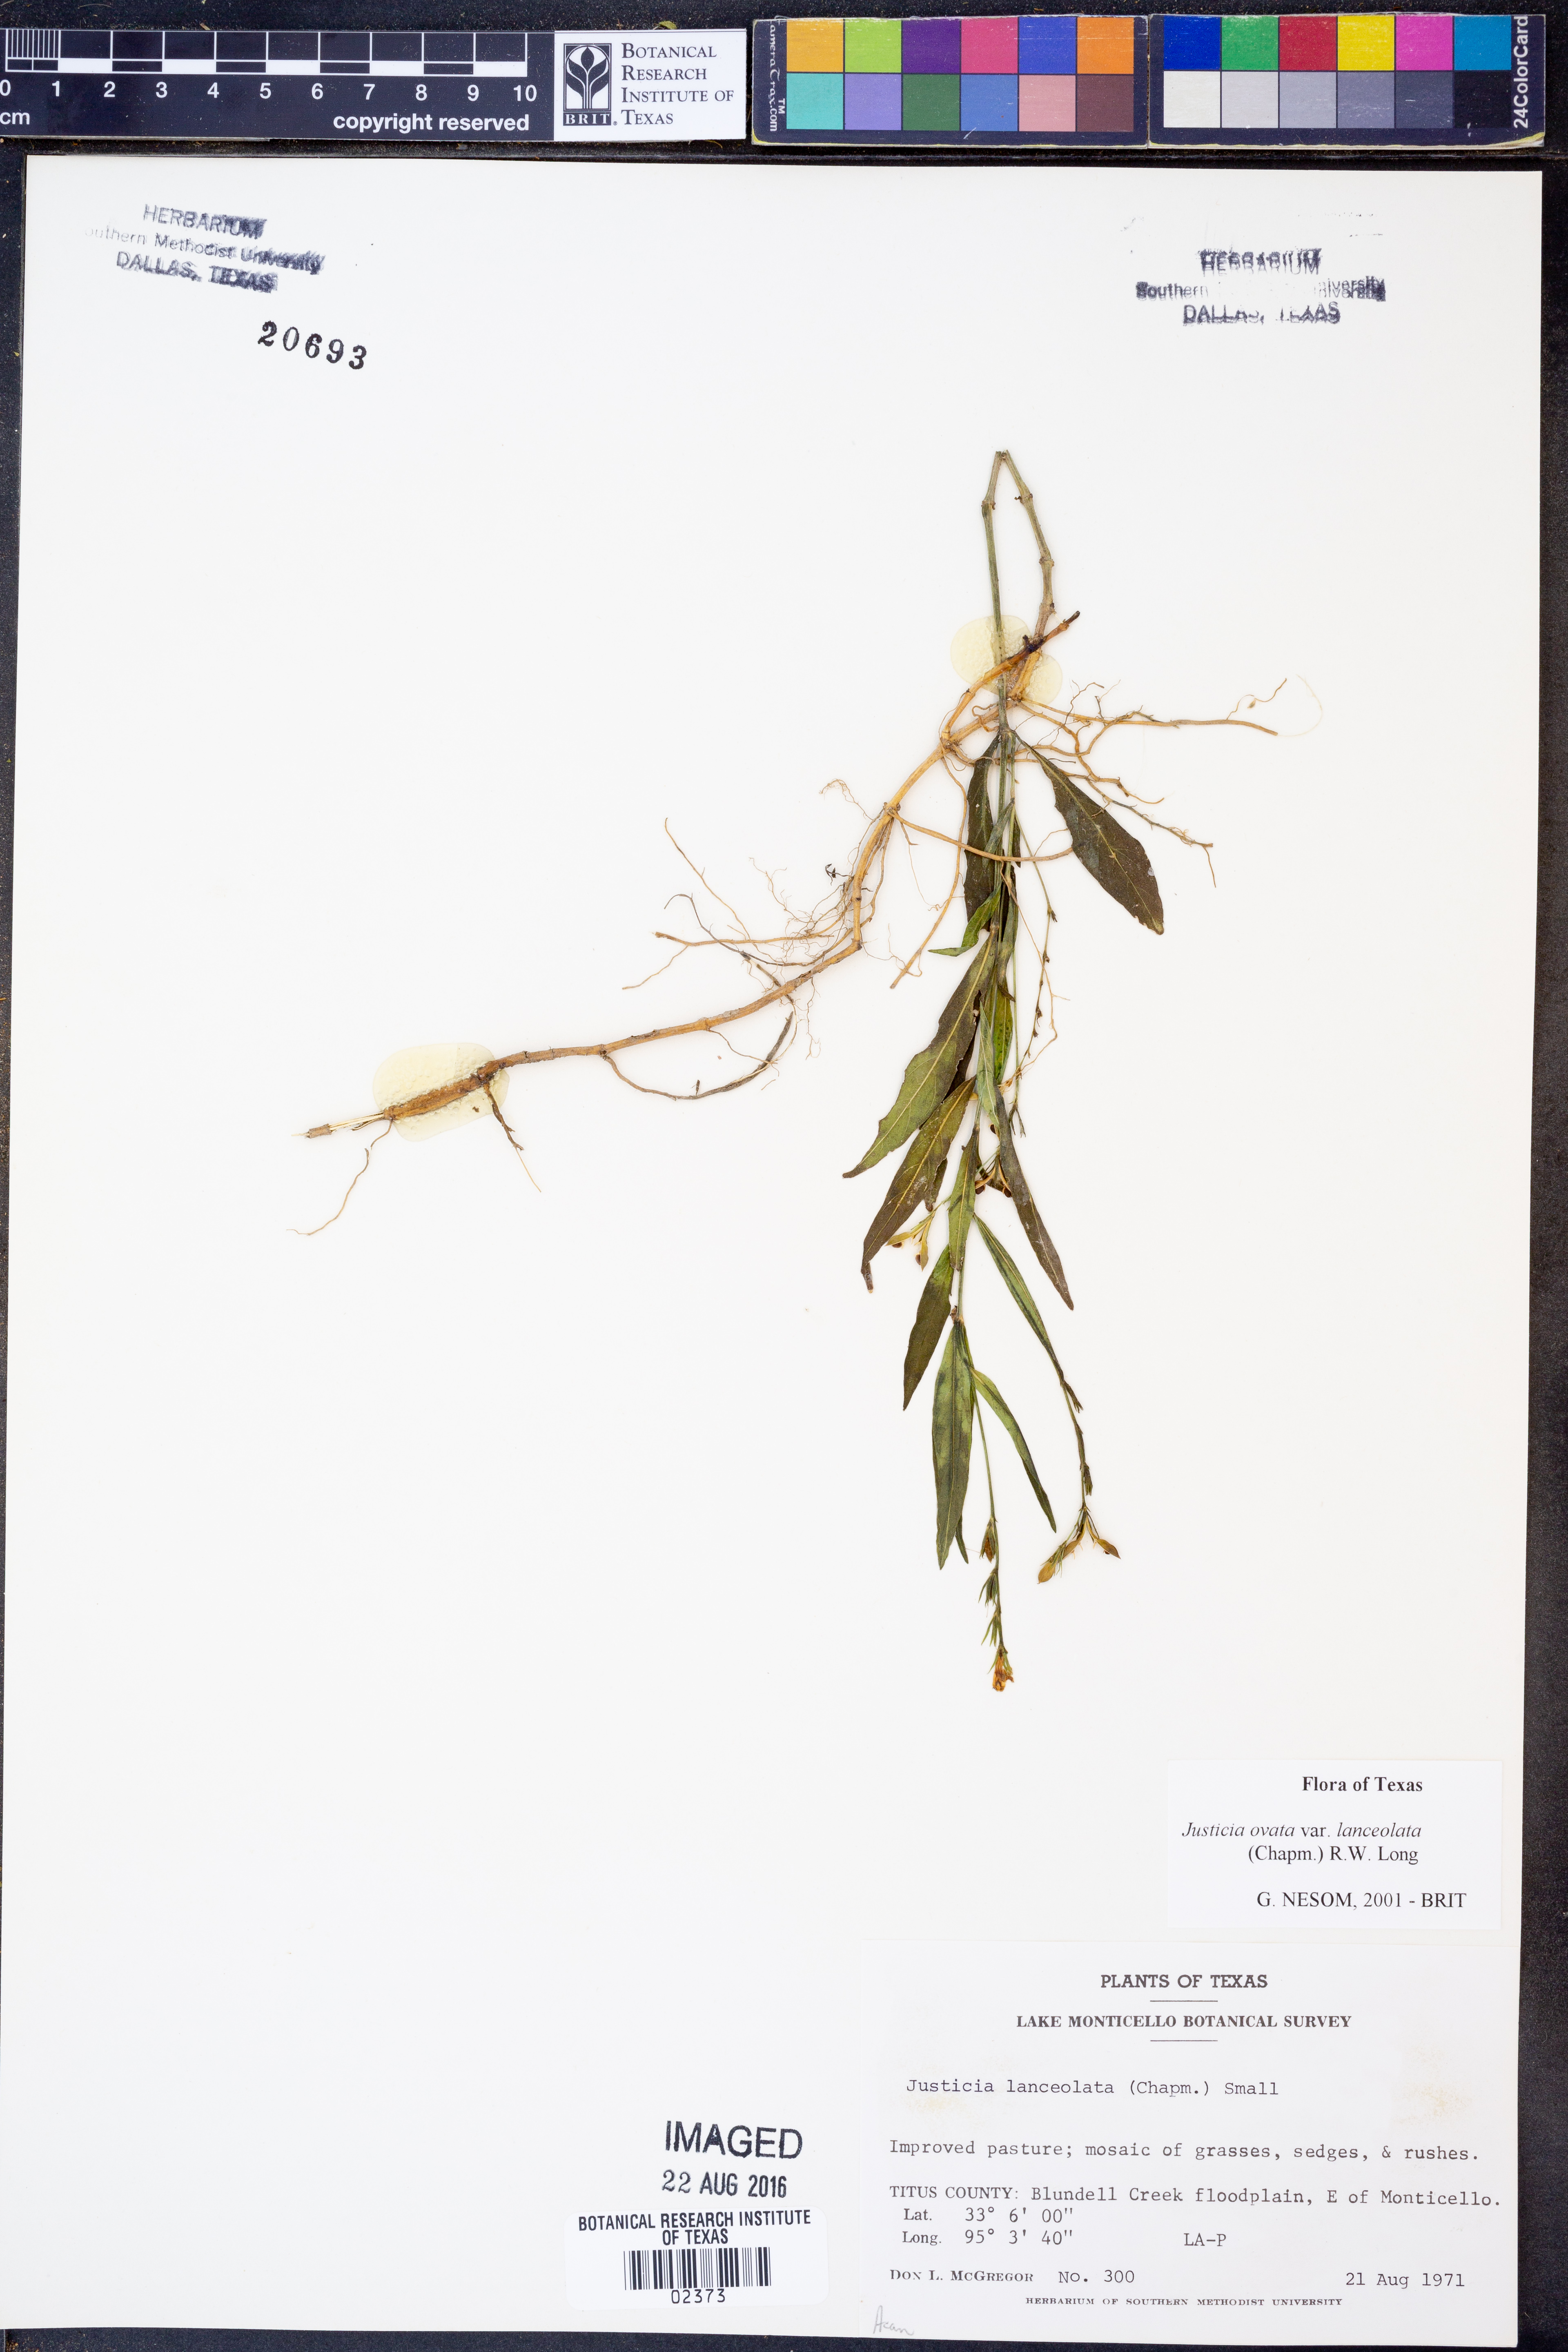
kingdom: Plantae
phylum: Tracheophyta
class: Magnoliopsida
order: Lamiales
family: Acanthaceae
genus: Justicia
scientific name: Justicia lanceolata
